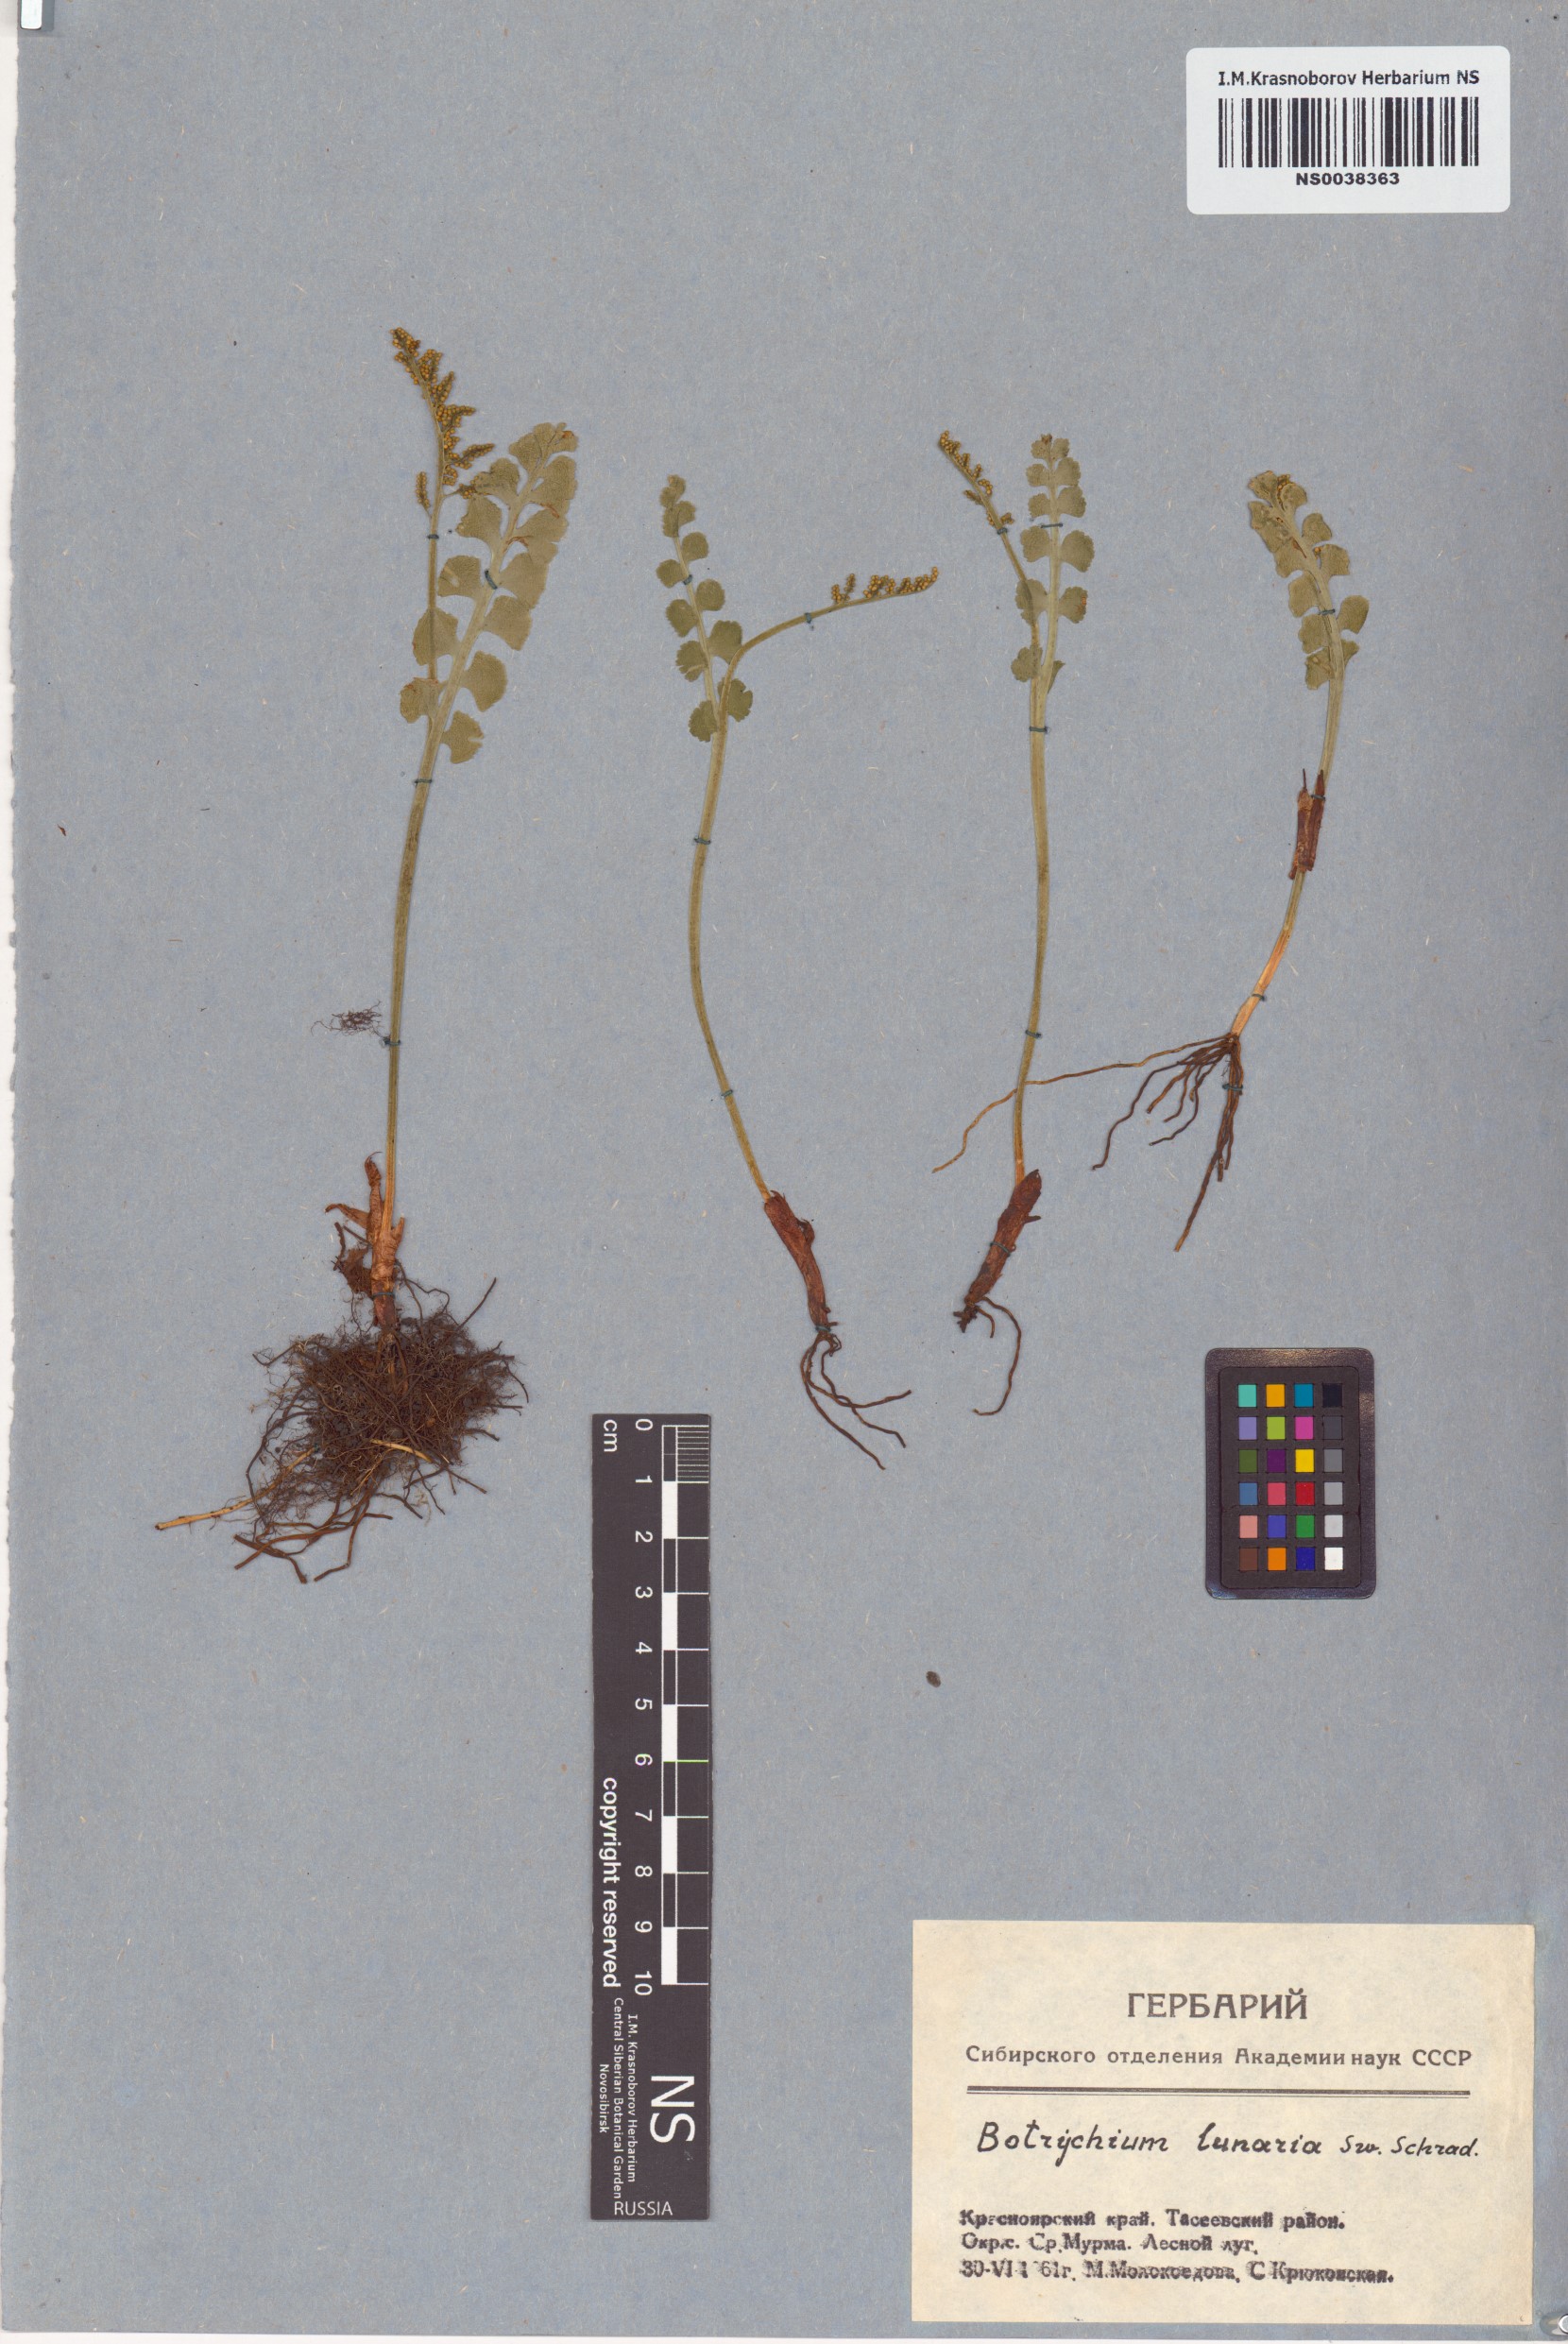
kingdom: Plantae
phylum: Tracheophyta
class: Polypodiopsida
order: Ophioglossales
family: Ophioglossaceae
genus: Botrychium
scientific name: Botrychium lunaria
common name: Moonwort
